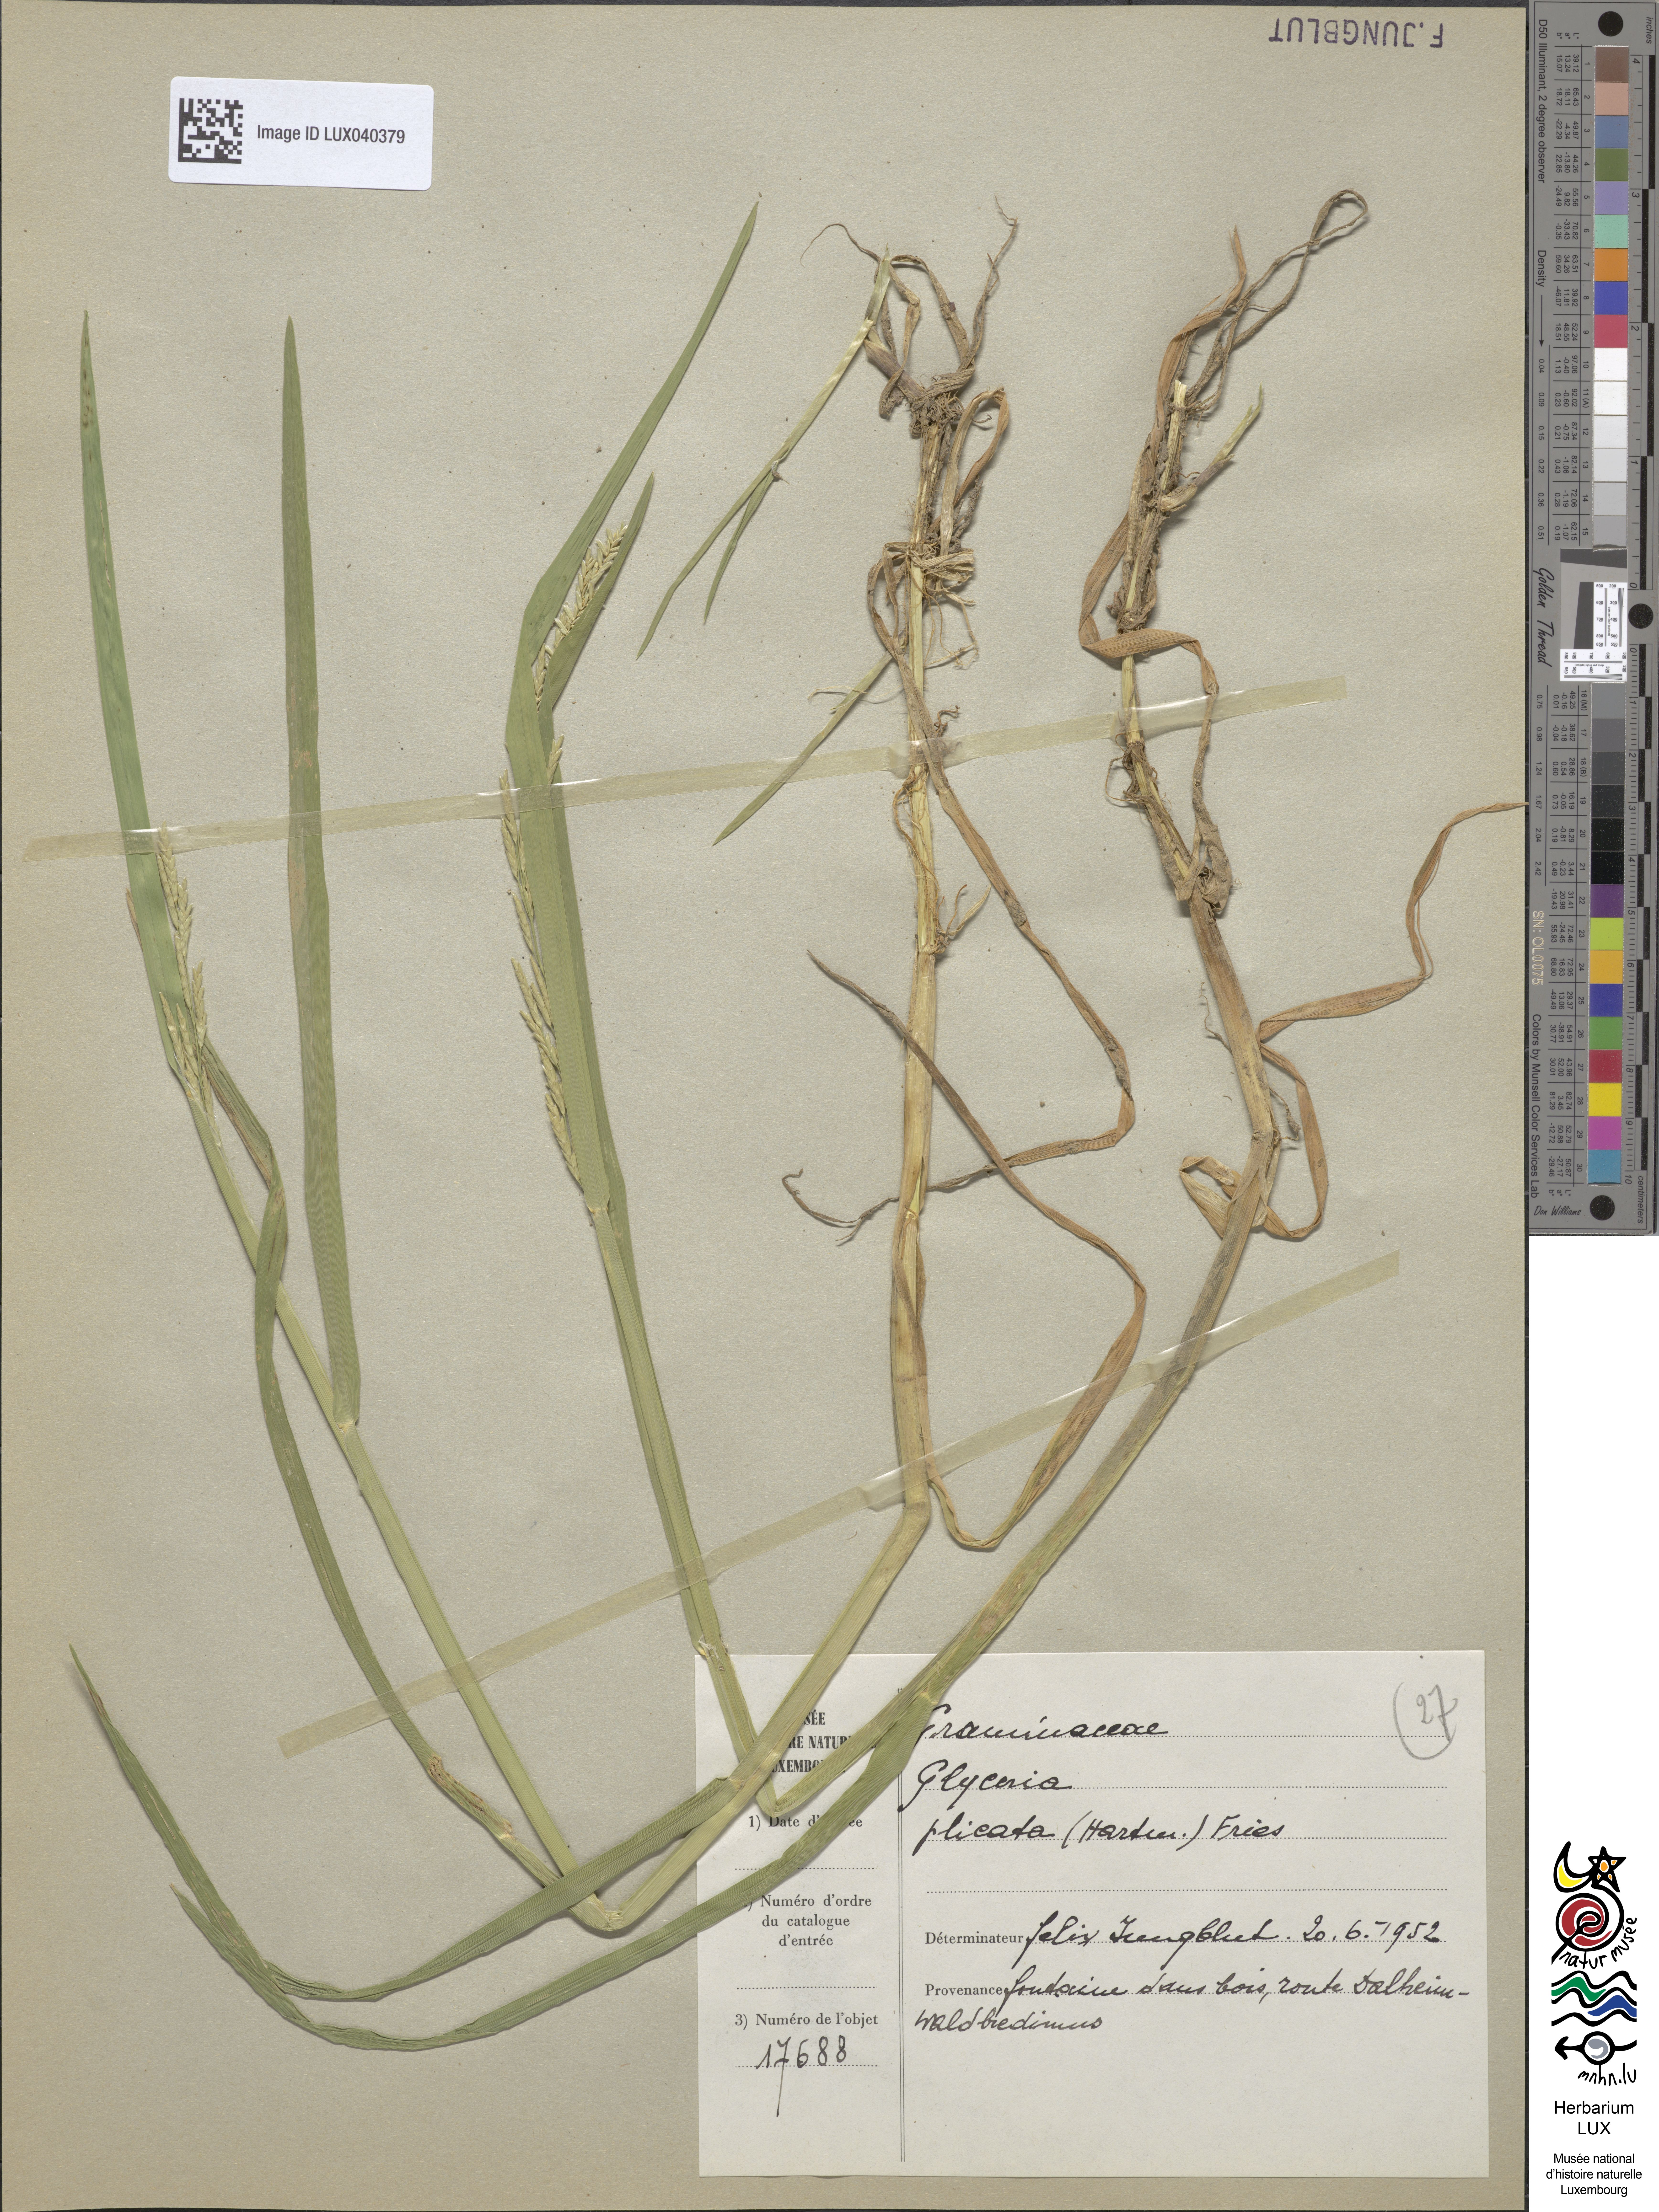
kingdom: Plantae
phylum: Tracheophyta
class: Liliopsida
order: Poales
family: Poaceae
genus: Glyceria
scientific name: Glyceria notata
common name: Plicate sweet-grass
